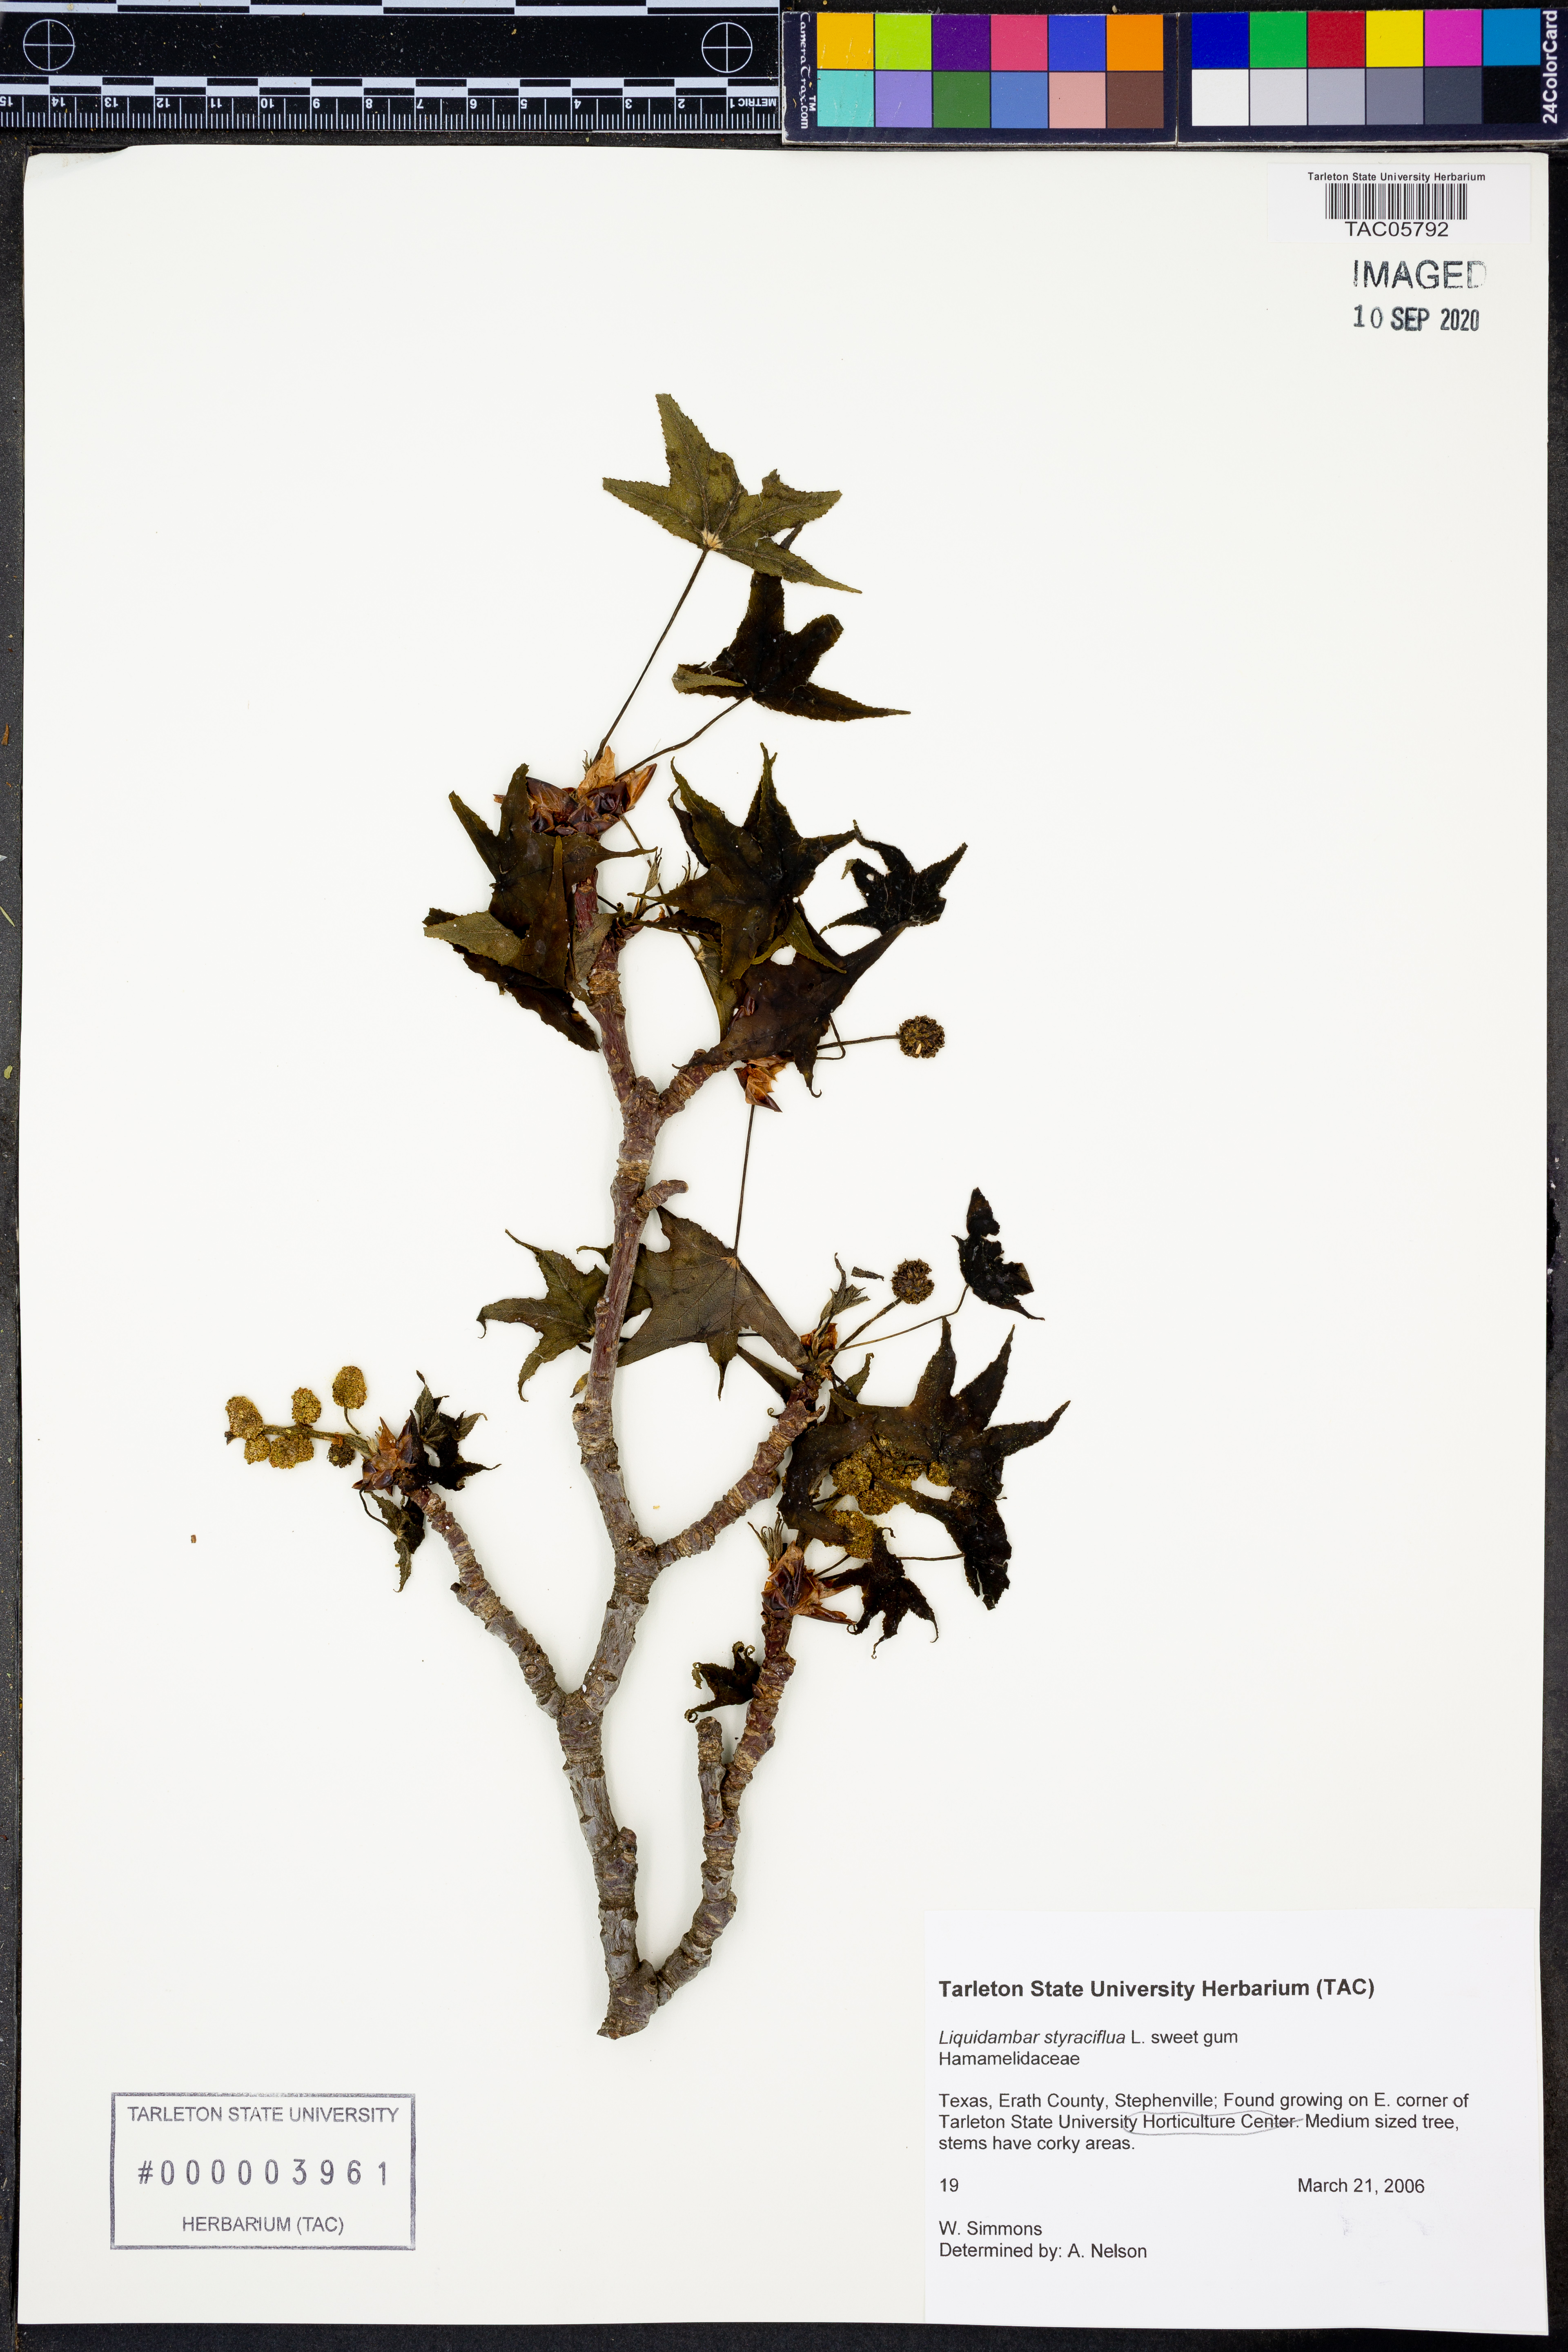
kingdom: Plantae
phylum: Tracheophyta
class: Magnoliopsida
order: Saxifragales
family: Altingiaceae
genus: Liquidambar
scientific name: Liquidambar styraciflua
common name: Sweet gum
